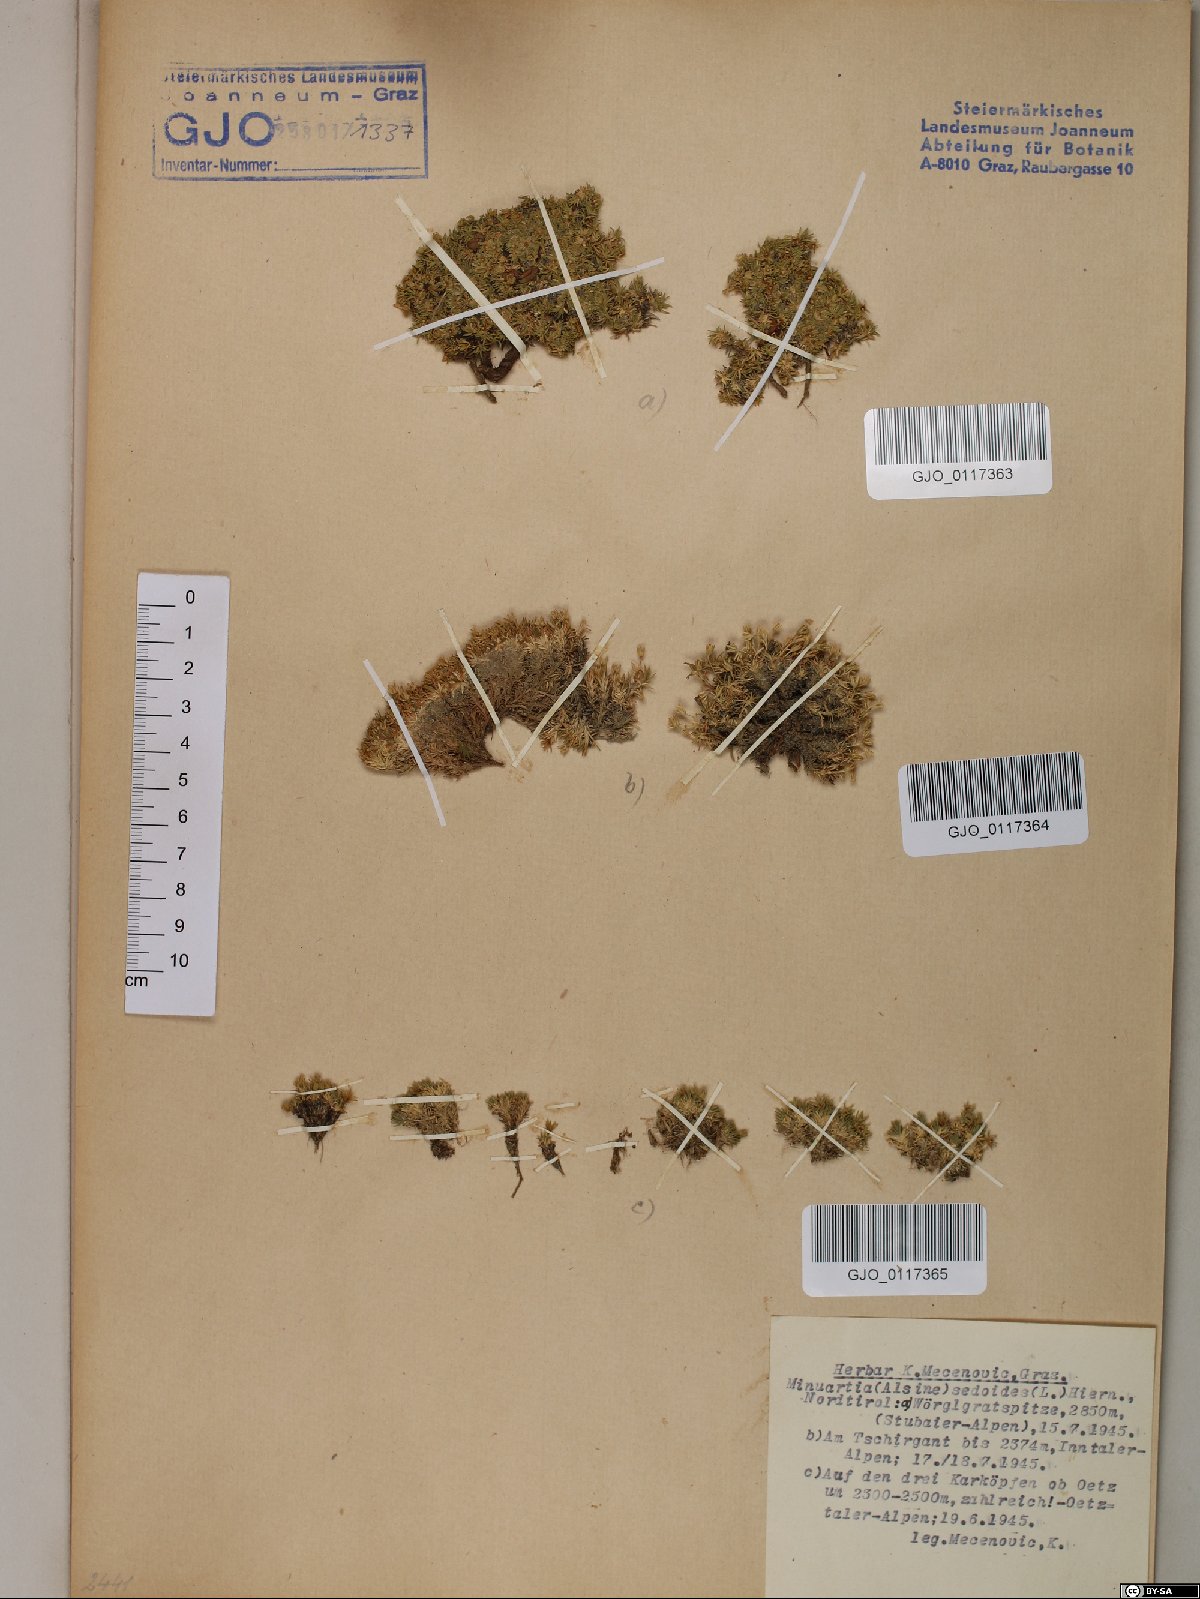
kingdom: Plantae
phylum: Tracheophyta
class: Magnoliopsida
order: Caryophyllales
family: Caryophyllaceae
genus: Cherleria
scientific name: Cherleria sedoides
